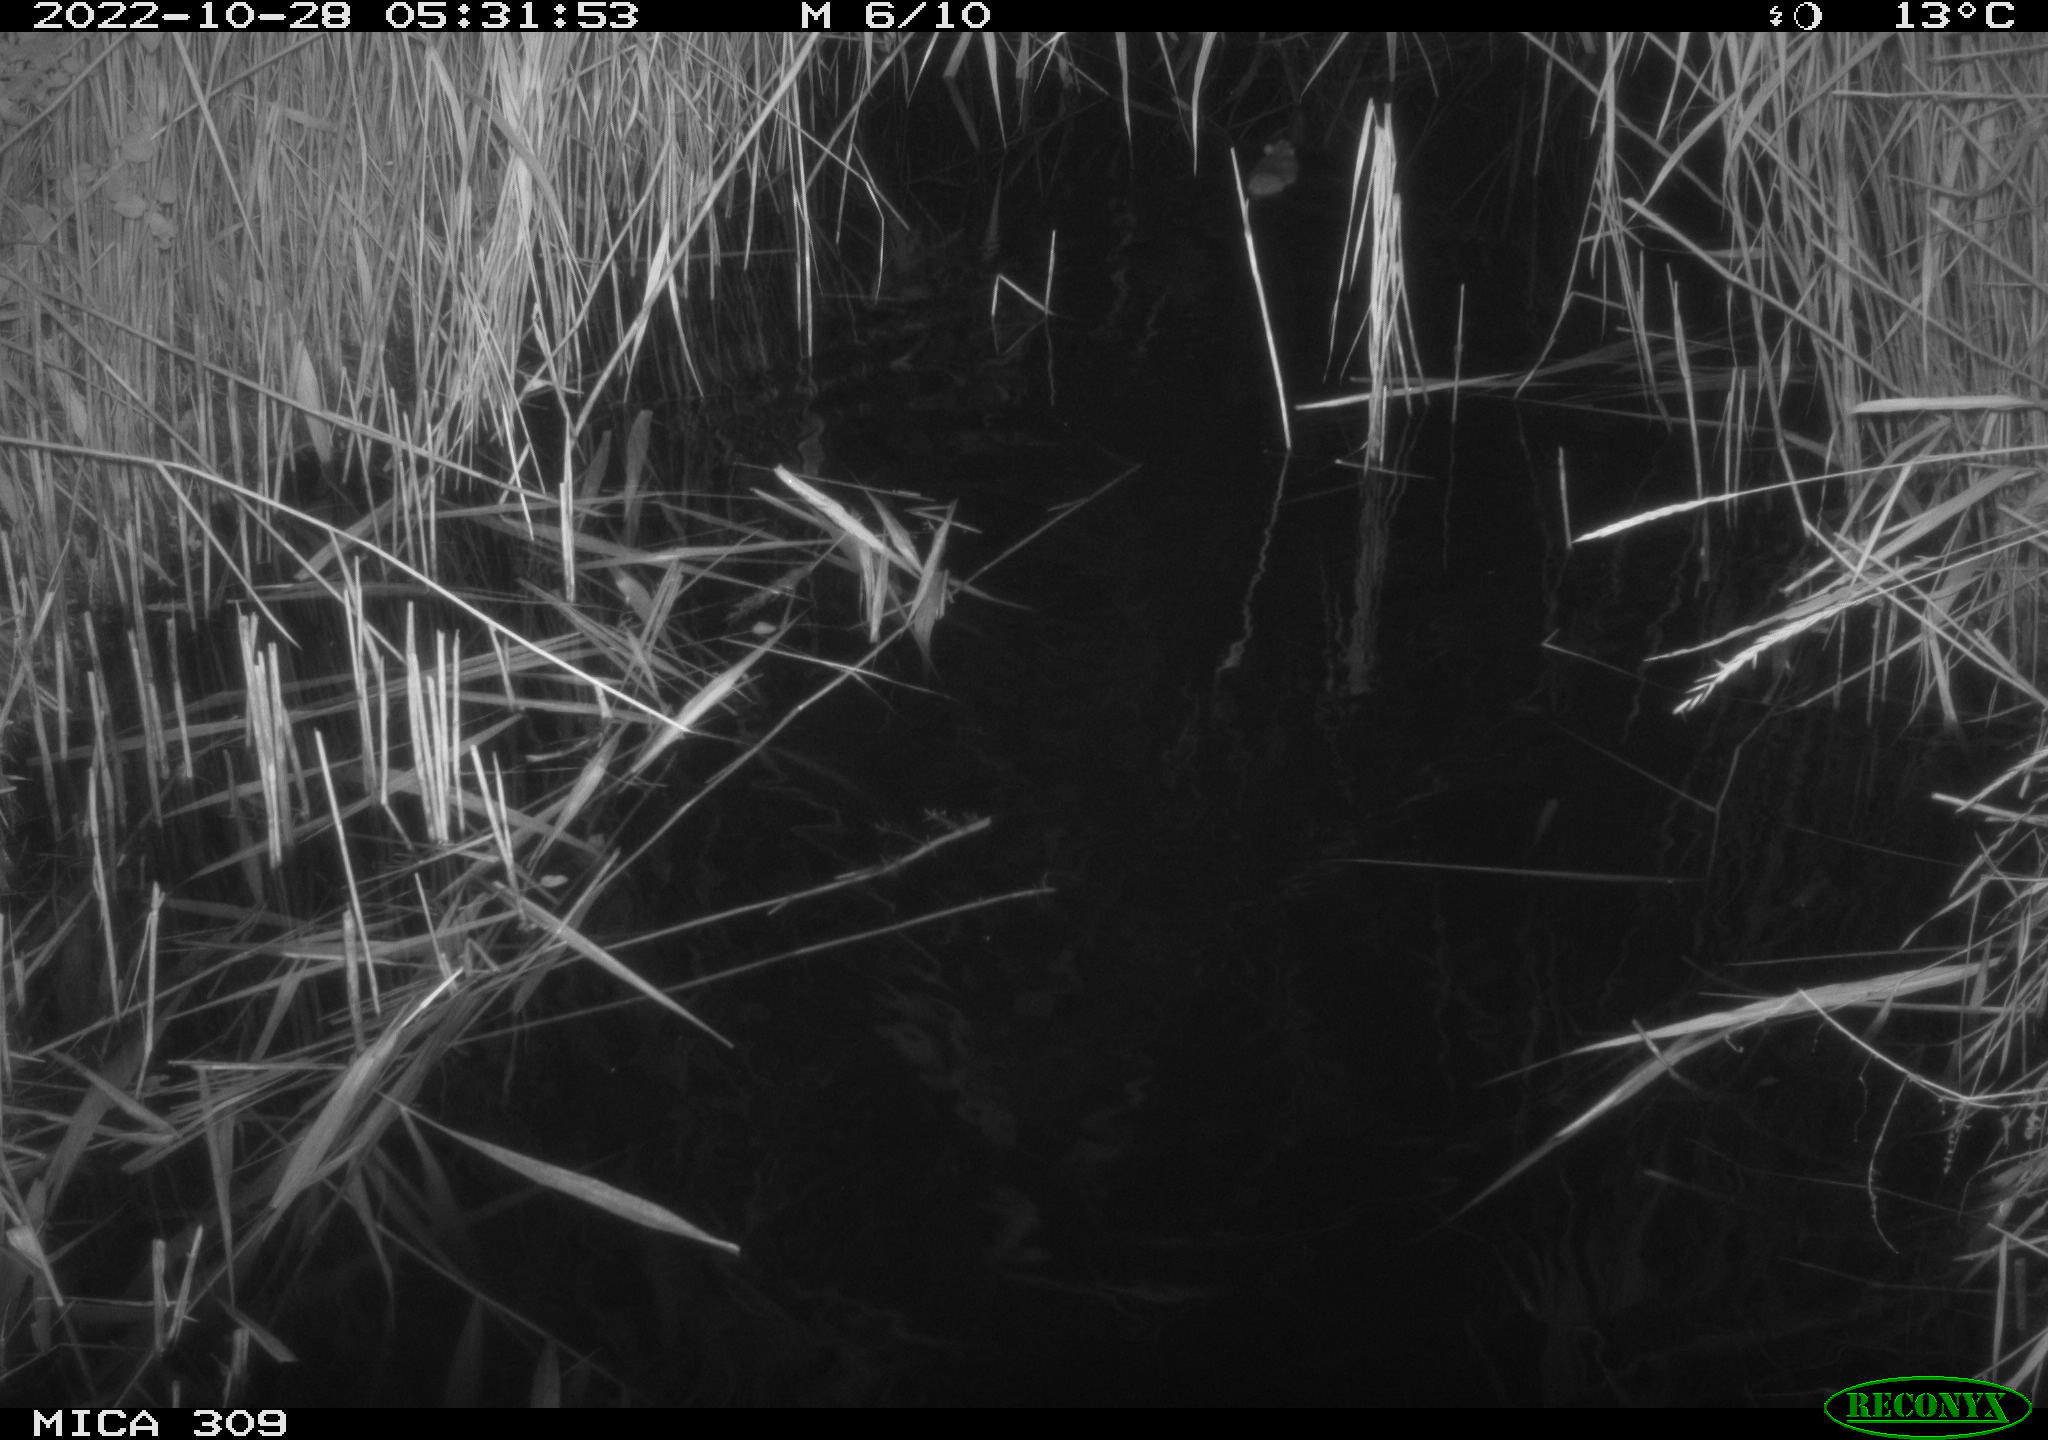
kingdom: Animalia
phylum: Chordata
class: Mammalia
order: Rodentia
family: Muridae
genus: Rattus
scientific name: Rattus norvegicus
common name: Brown rat
